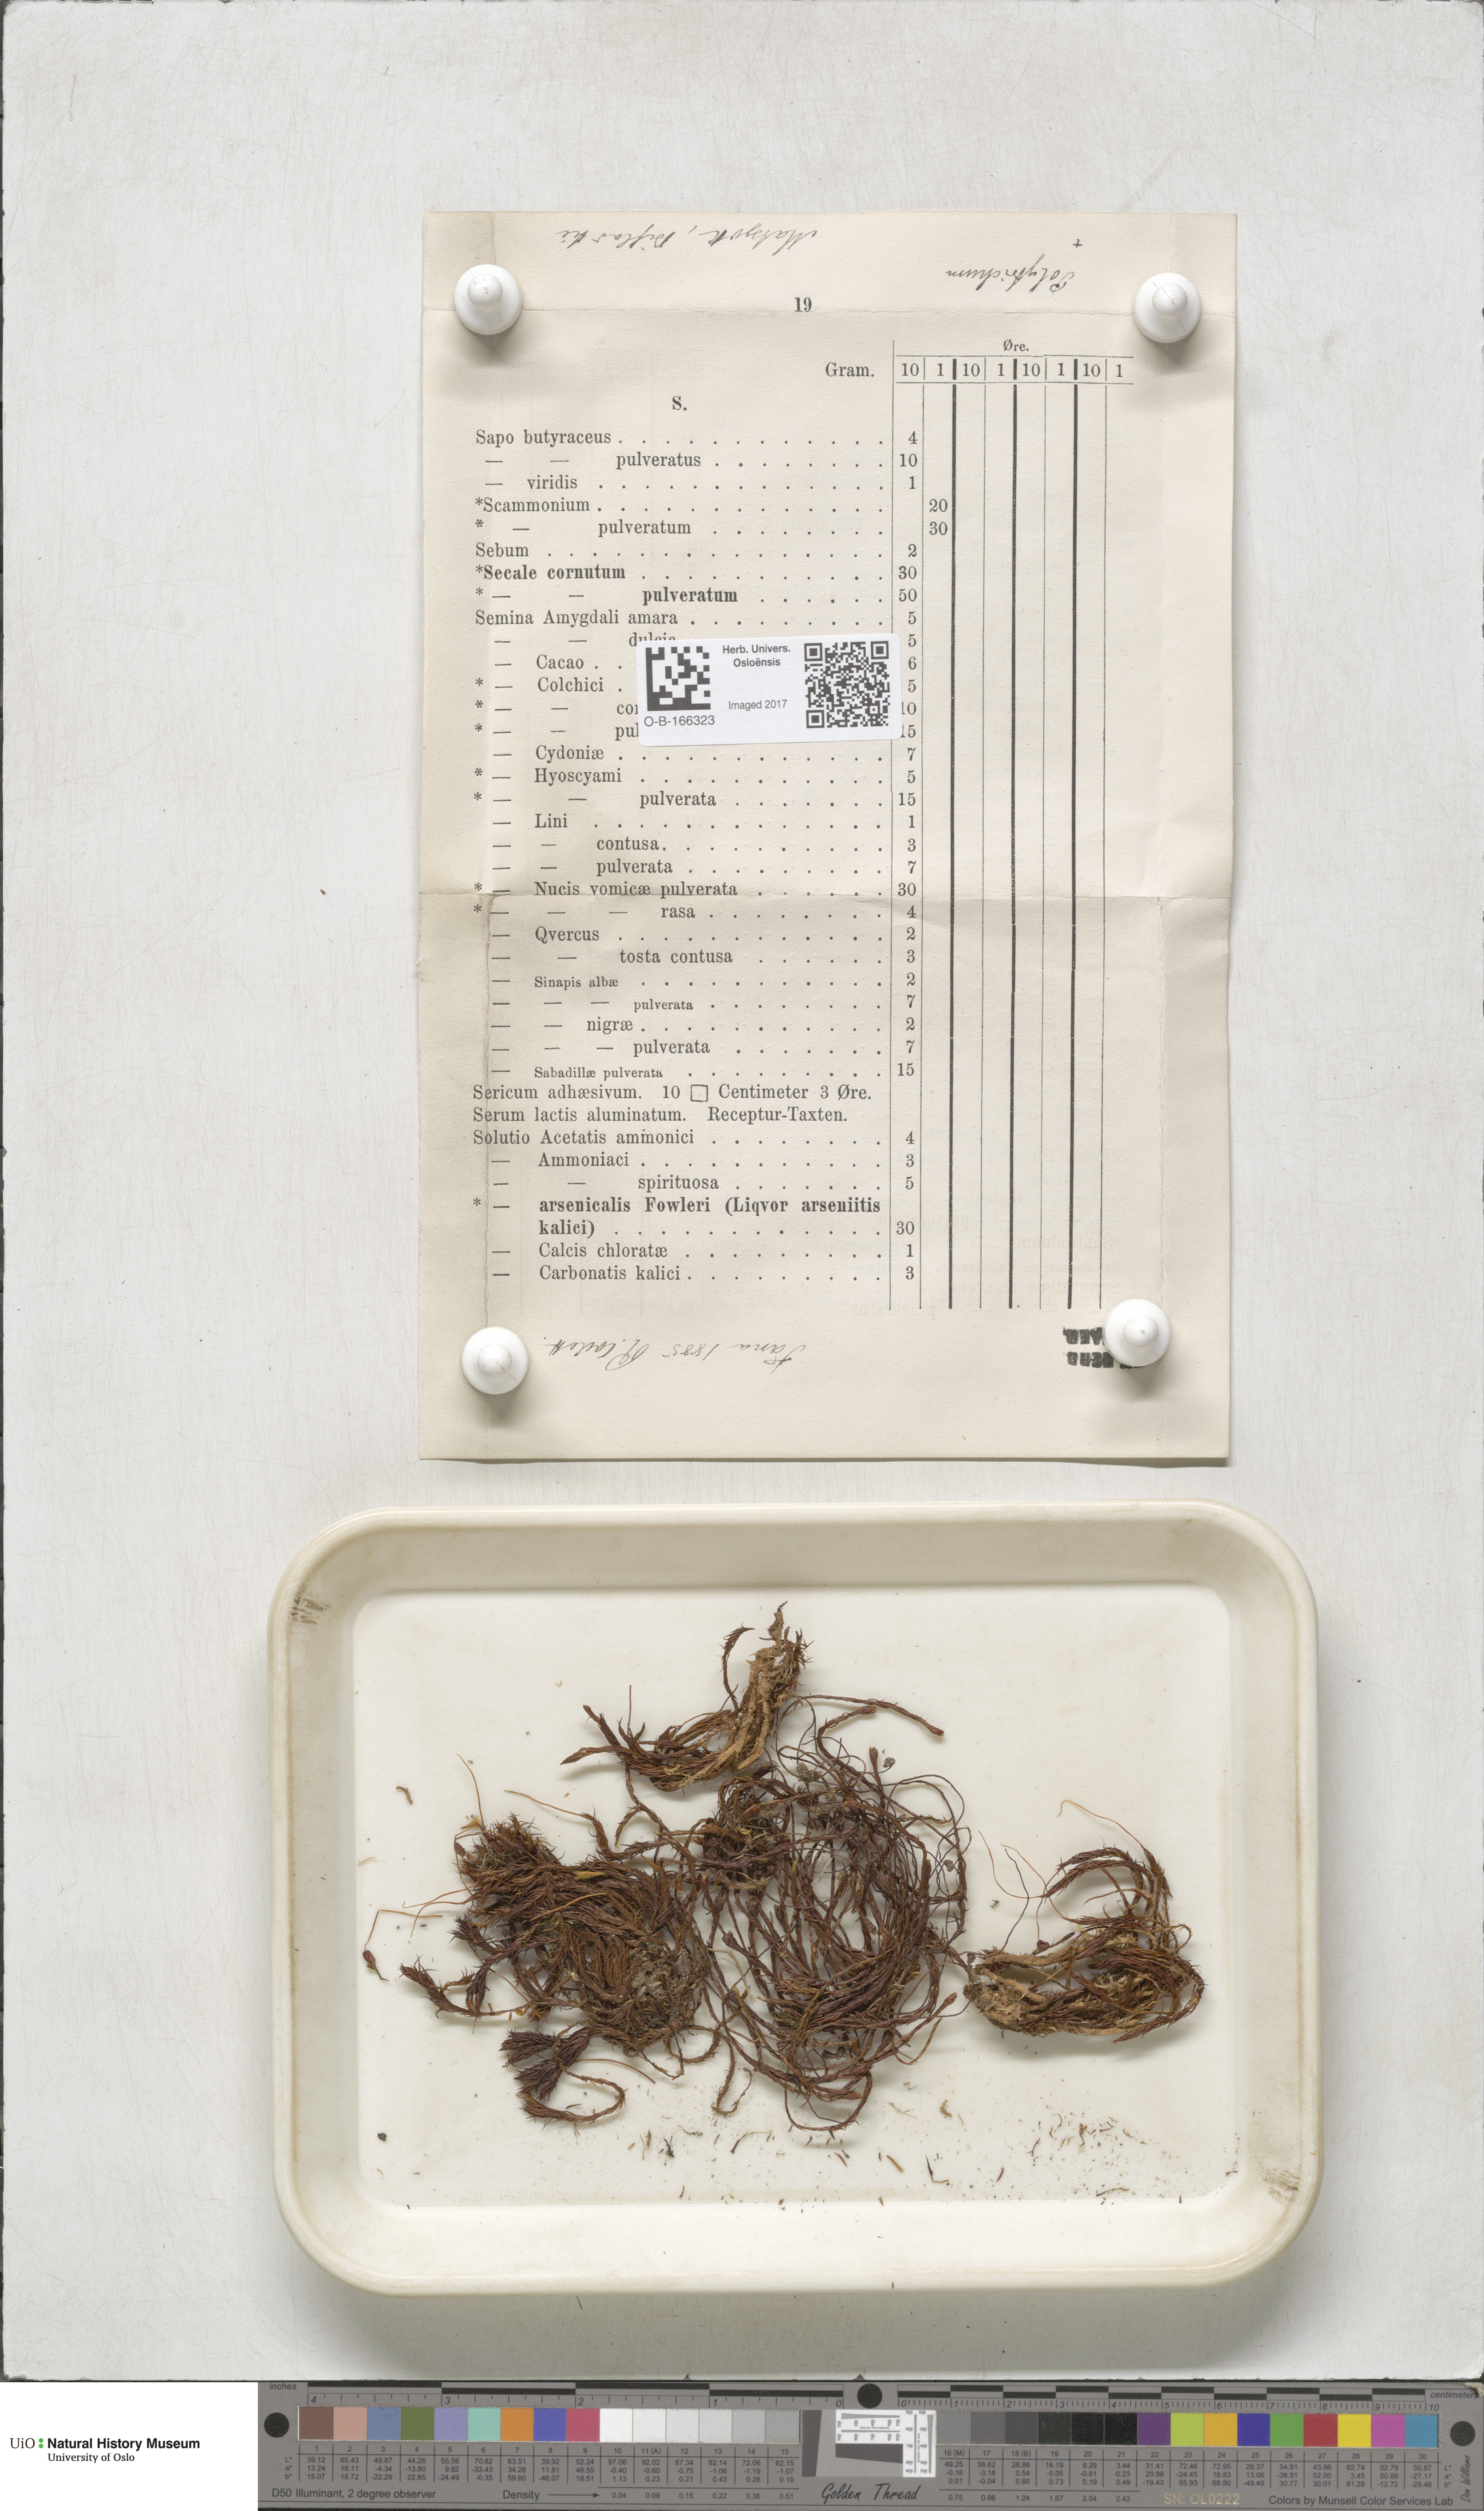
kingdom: Plantae
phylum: Bryophyta
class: Polytrichopsida
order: Polytrichales
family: Polytrichaceae
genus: Polytrichum
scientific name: Polytrichum
